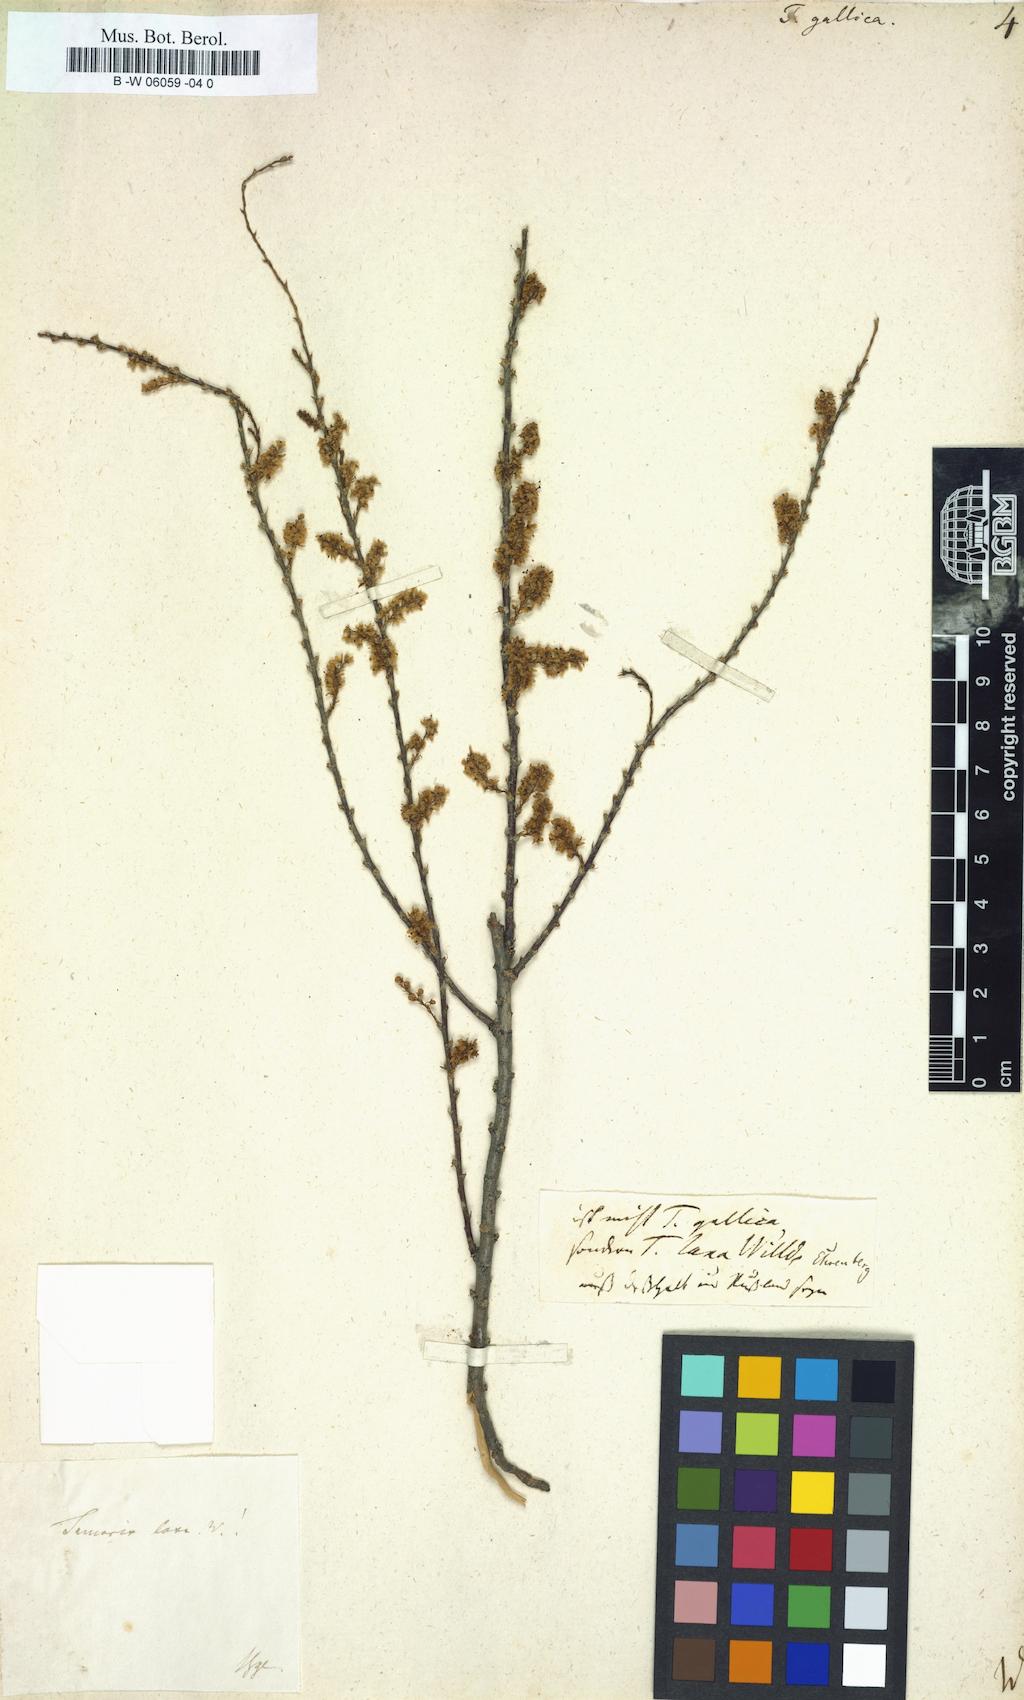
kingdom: Plantae
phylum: Tracheophyta
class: Magnoliopsida
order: Caryophyllales
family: Tamaricaceae
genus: Tamarix
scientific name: Tamarix gallica
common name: Tamarisk
